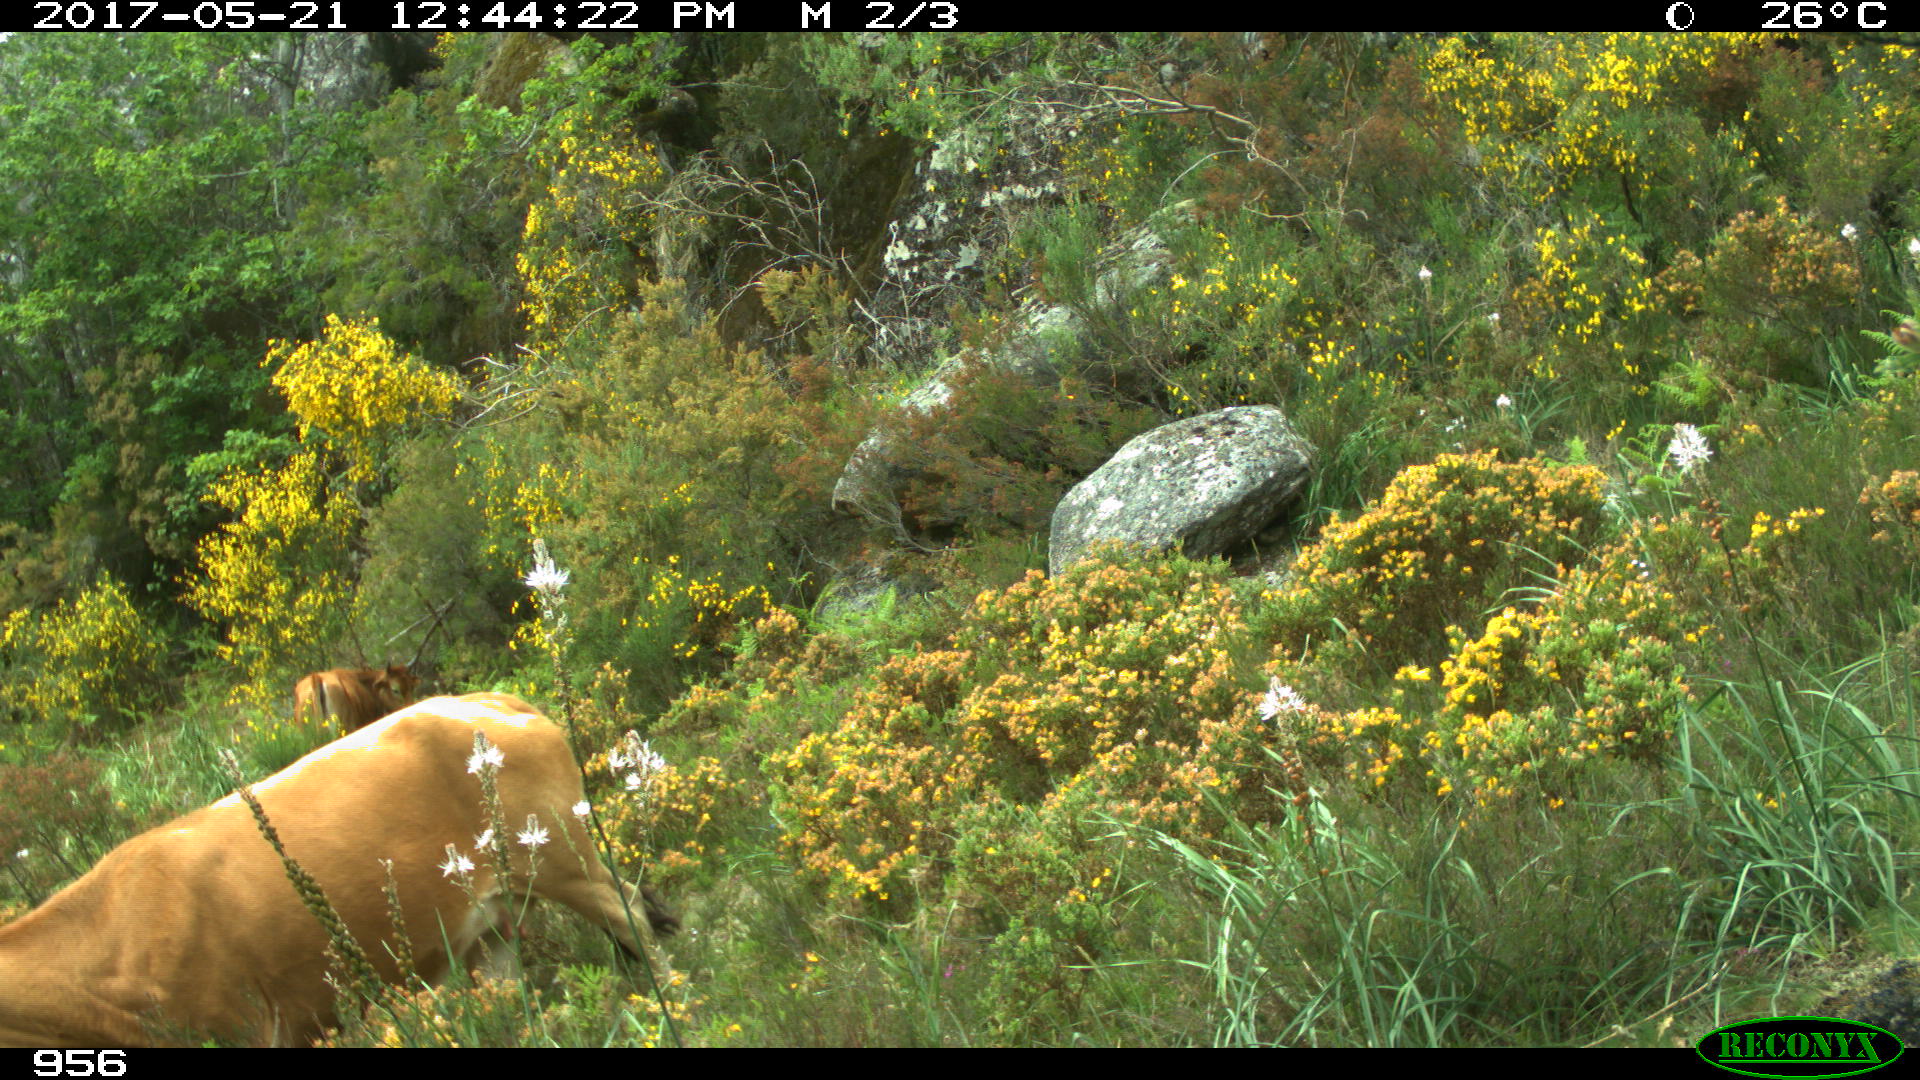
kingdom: Animalia
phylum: Chordata
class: Mammalia
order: Artiodactyla
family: Bovidae
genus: Bos
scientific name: Bos taurus
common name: Domesticated cattle
